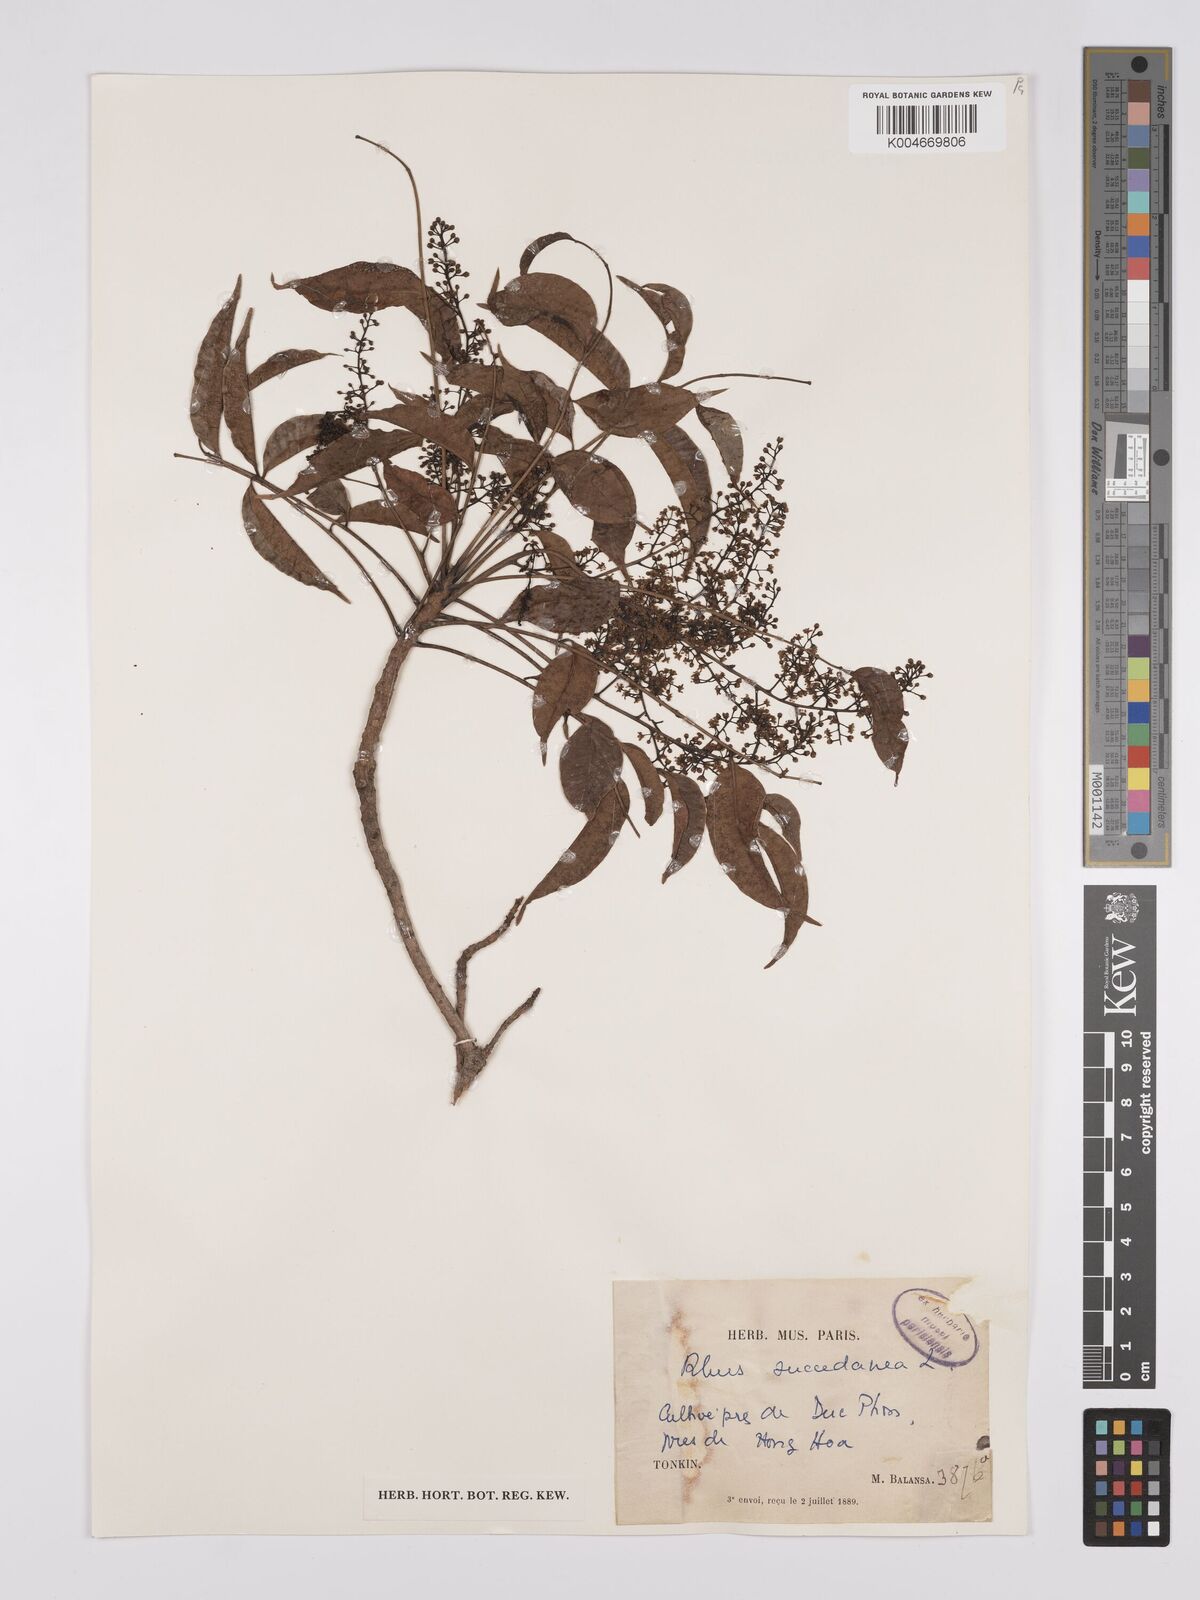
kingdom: Plantae
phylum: Tracheophyta
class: Magnoliopsida
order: Sapindales
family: Anacardiaceae
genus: Toxicodendron
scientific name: Toxicodendron succedaneum
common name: Wax tree
